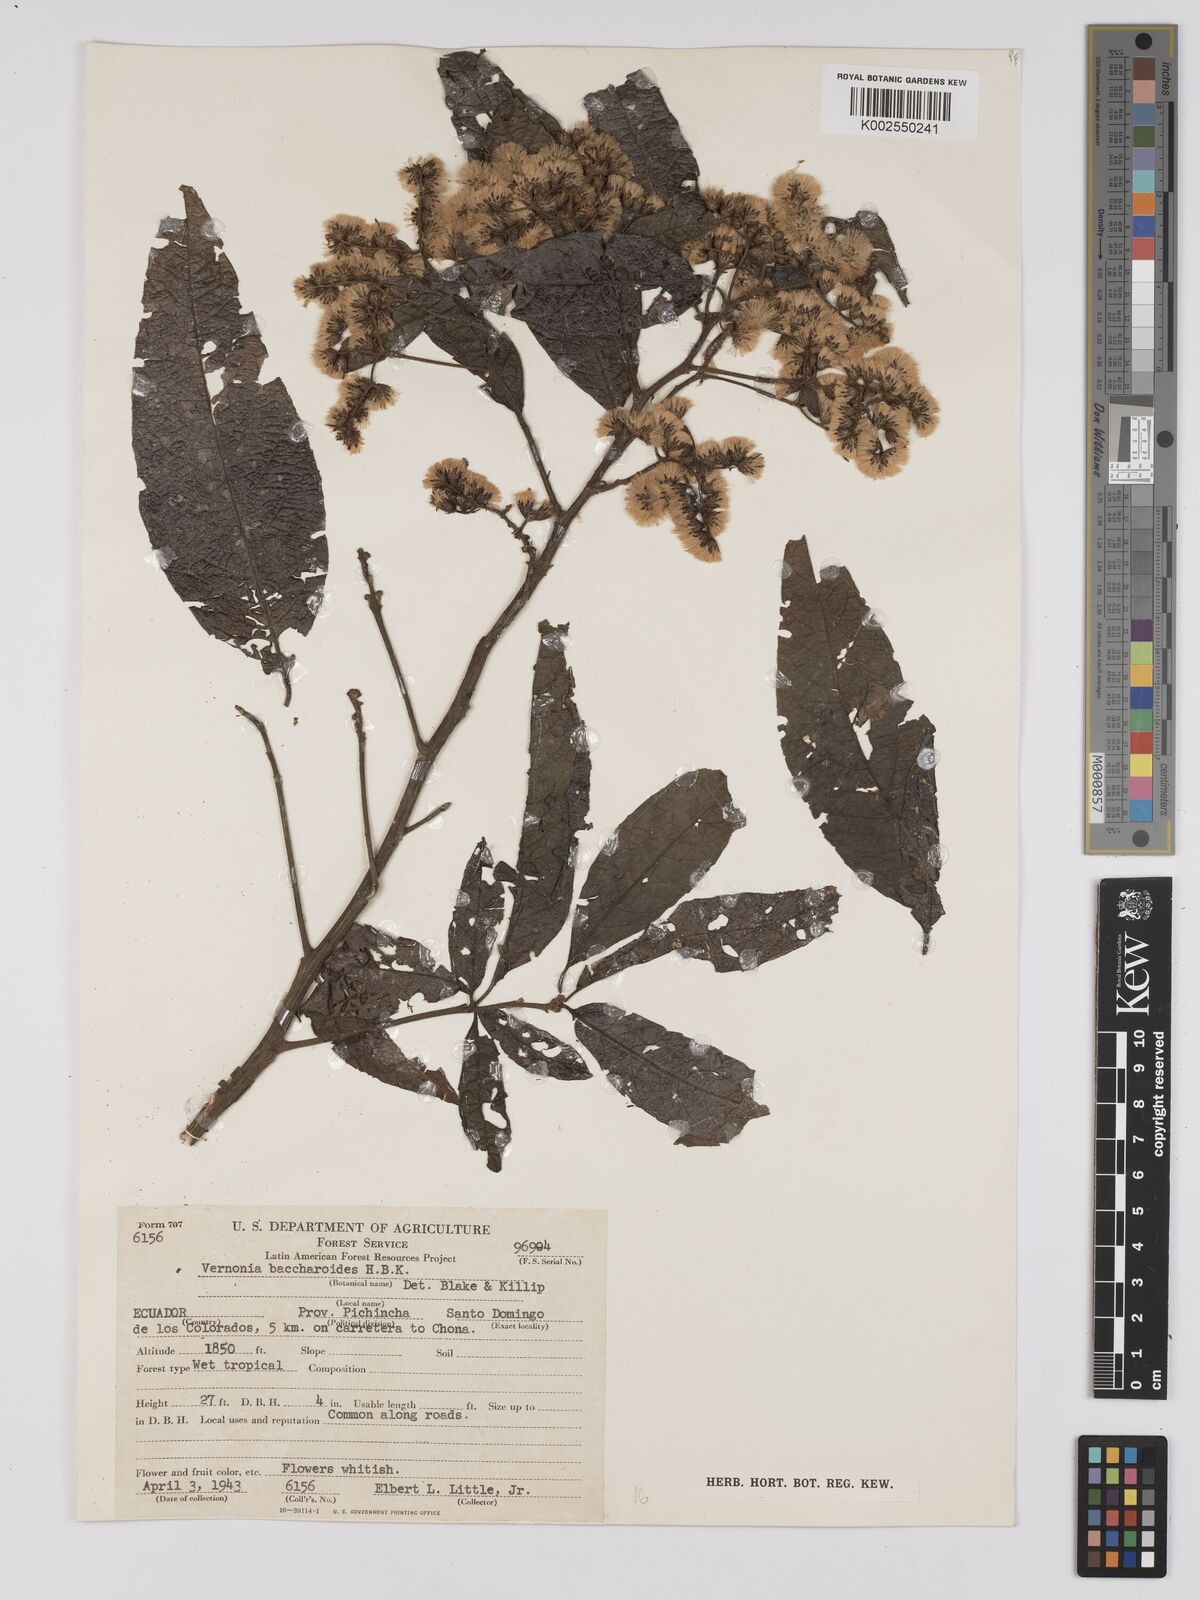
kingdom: Plantae
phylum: Tracheophyta
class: Magnoliopsida
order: Asterales
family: Asteraceae
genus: Vernonanthura
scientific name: Vernonanthura patens
